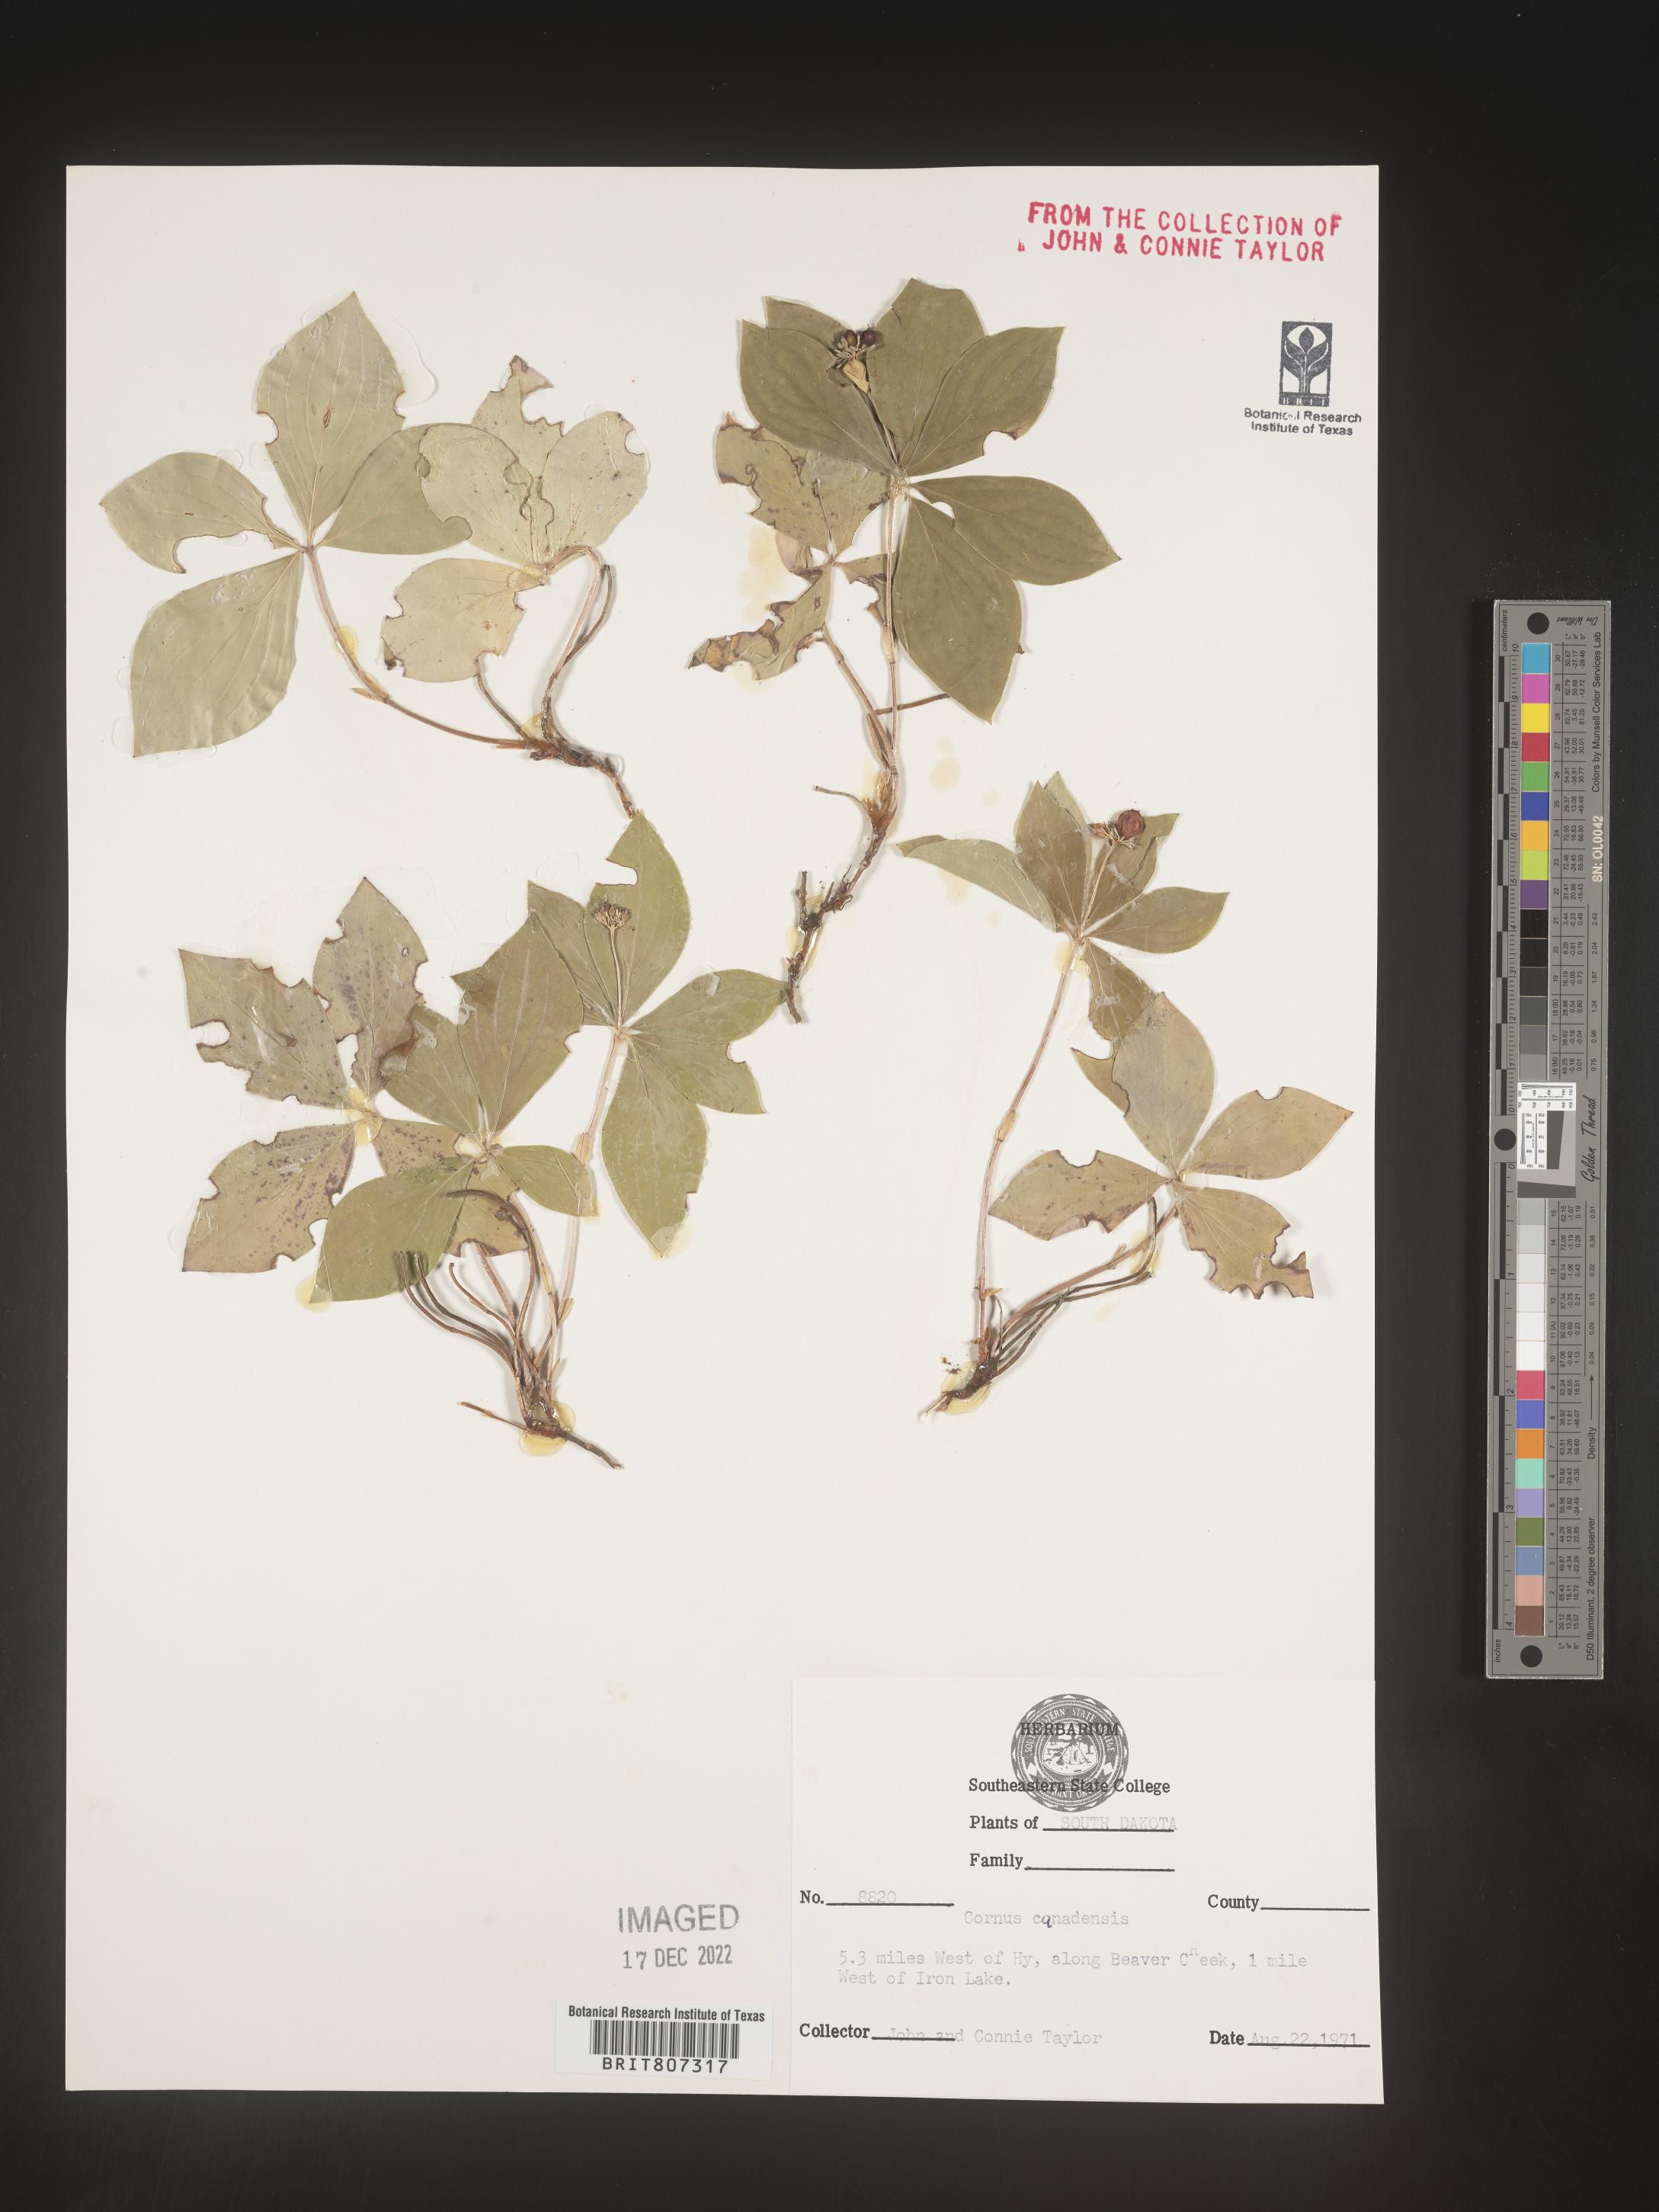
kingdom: Plantae
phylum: Tracheophyta
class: Magnoliopsida
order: Cornales
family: Cornaceae
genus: Cornus
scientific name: Cornus canadensis
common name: Creeping dogwood
